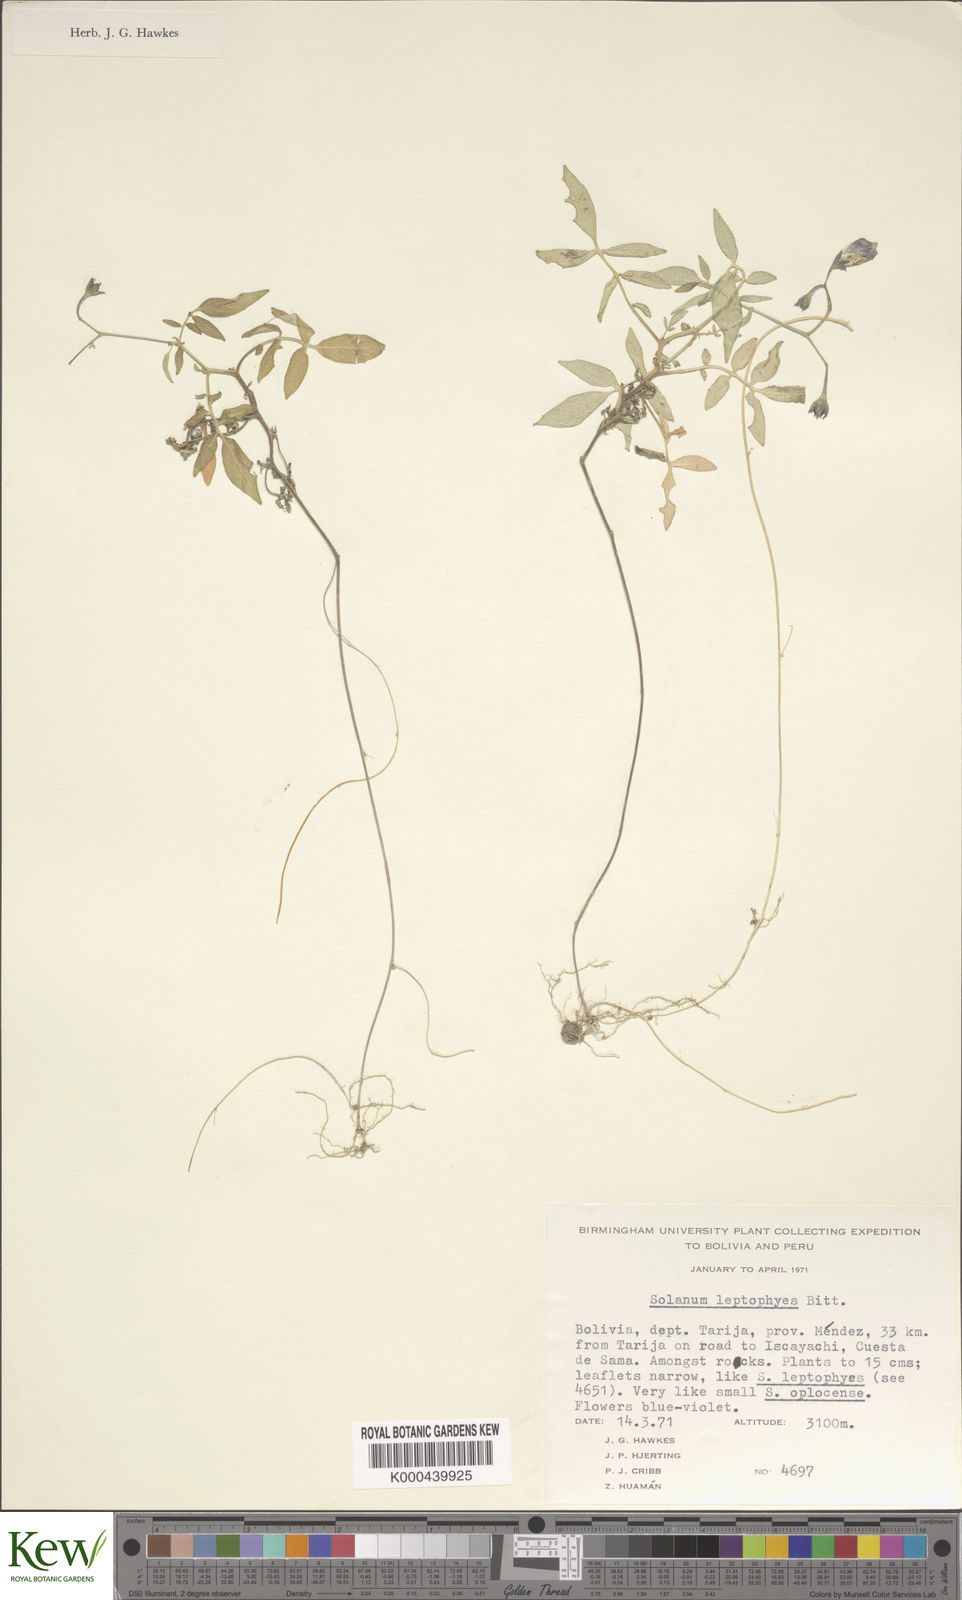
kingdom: Plantae
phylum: Tracheophyta
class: Magnoliopsida
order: Solanales
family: Solanaceae
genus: Solanum
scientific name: Solanum brevicaule
